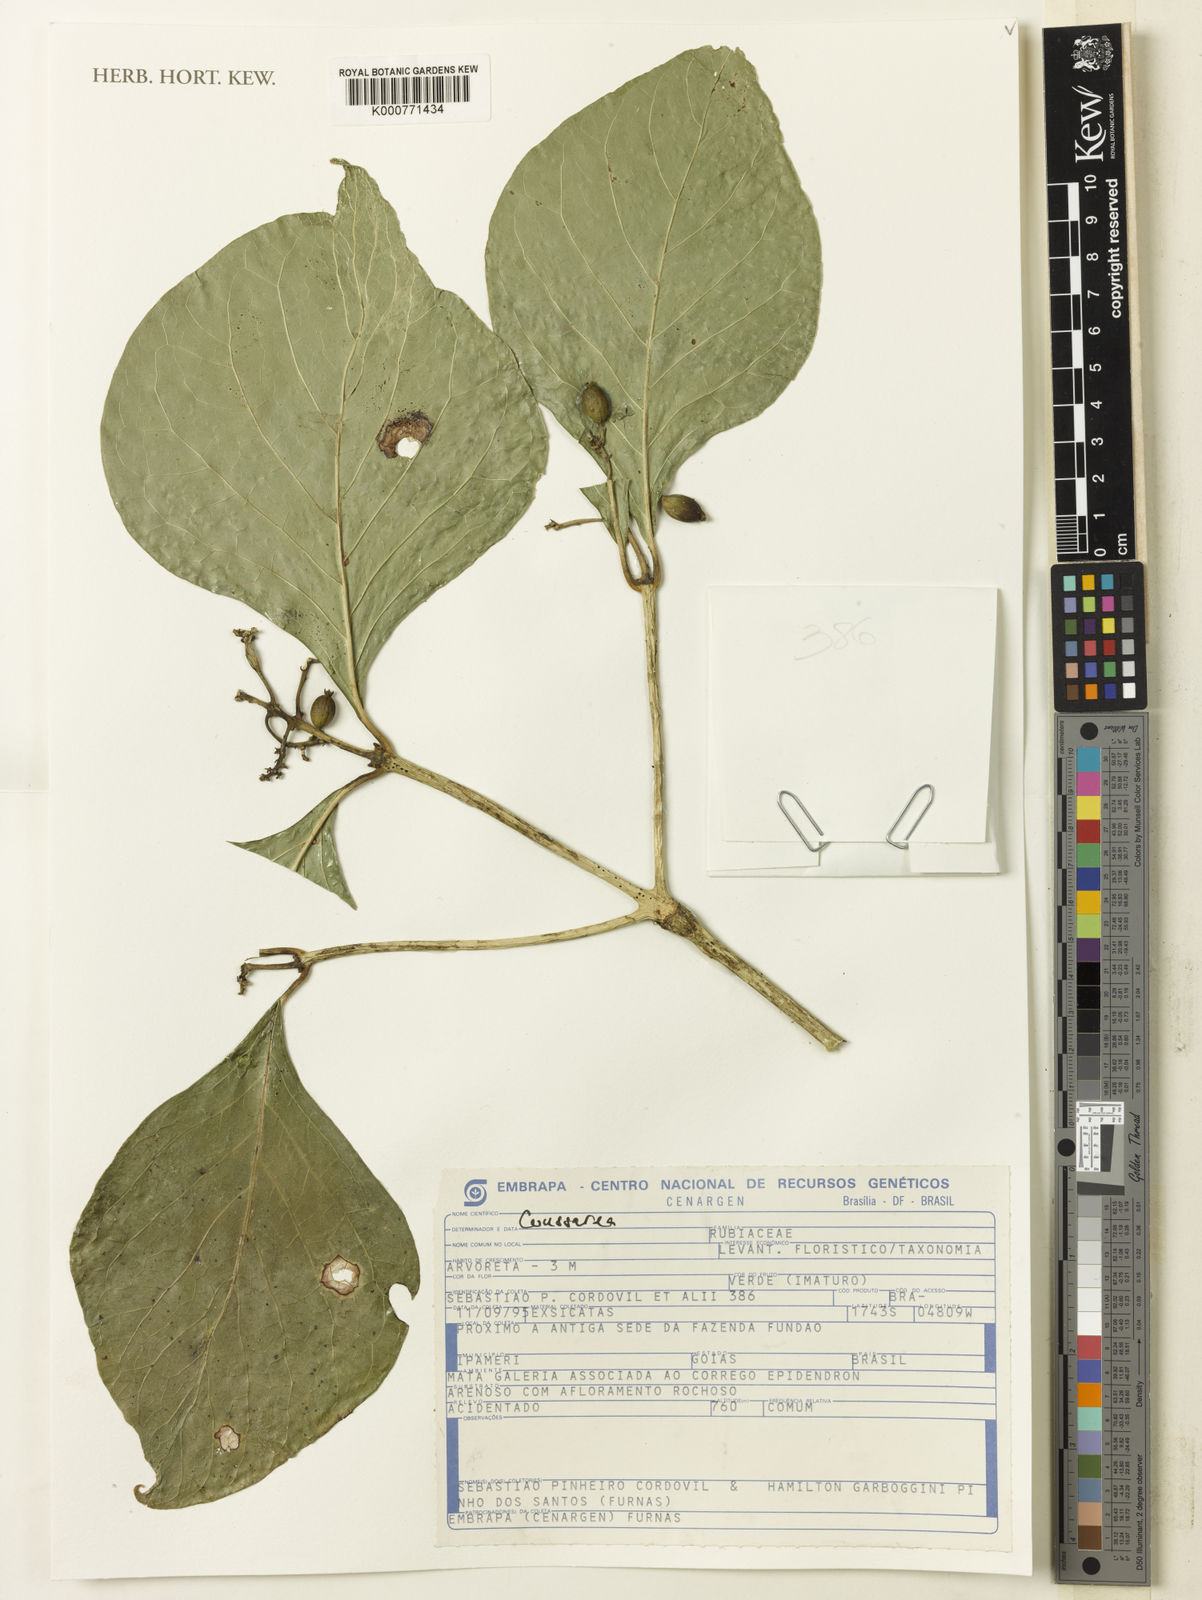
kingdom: Plantae
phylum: Tracheophyta
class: Magnoliopsida
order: Gentianales
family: Rubiaceae
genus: Coussarea
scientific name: Coussarea
